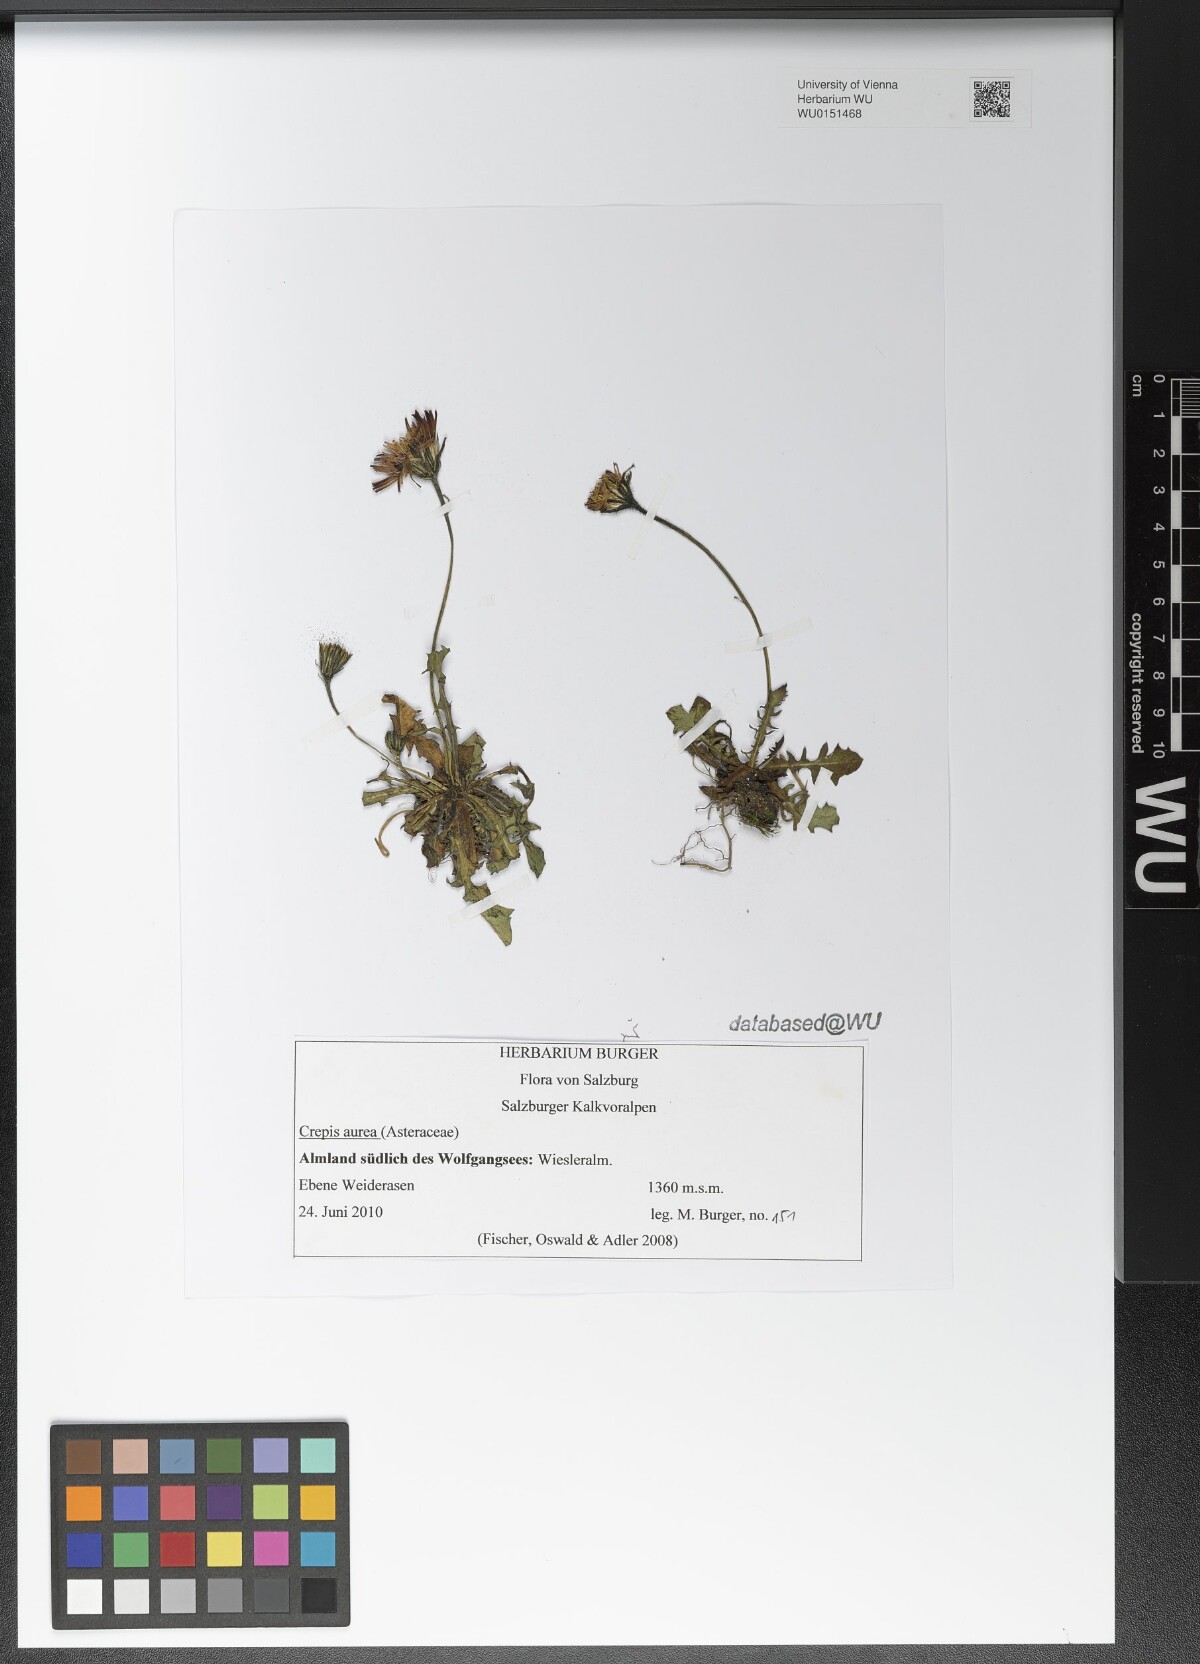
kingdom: Plantae
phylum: Tracheophyta
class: Magnoliopsida
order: Asterales
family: Asteraceae
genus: Crepis
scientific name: Crepis aurea
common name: Golden hawk's-beard
